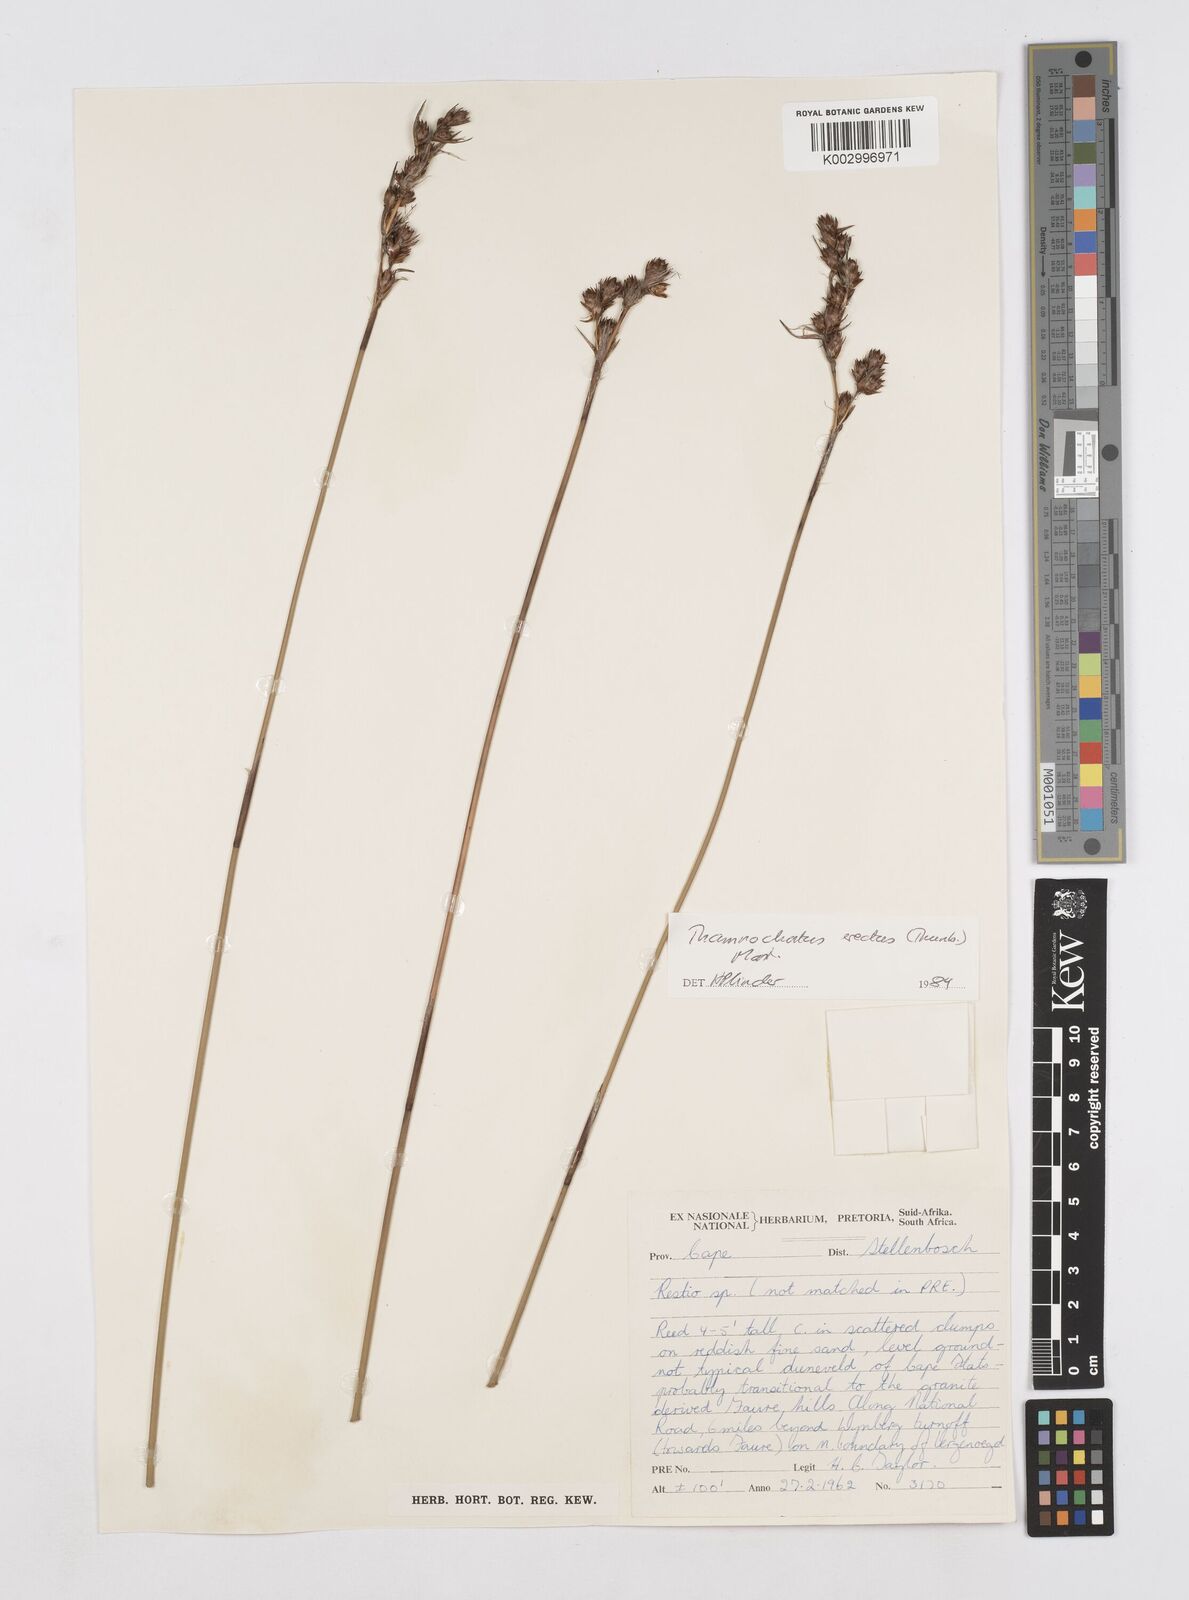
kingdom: Plantae
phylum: Tracheophyta
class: Liliopsida
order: Poales
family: Restionaceae
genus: Thamnochortus
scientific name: Thamnochortus erectus
